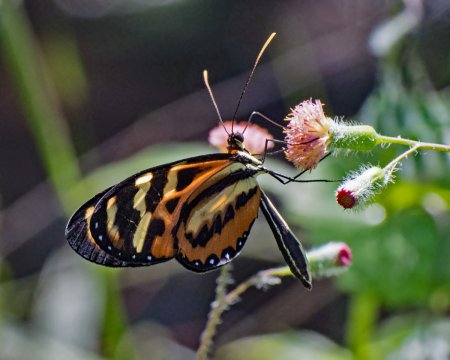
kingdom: Animalia
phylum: Arthropoda
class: Insecta
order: Lepidoptera
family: Nymphalidae
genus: Mechanitis
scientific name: Mechanitis polymnia
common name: Polymnia Tigerwing
